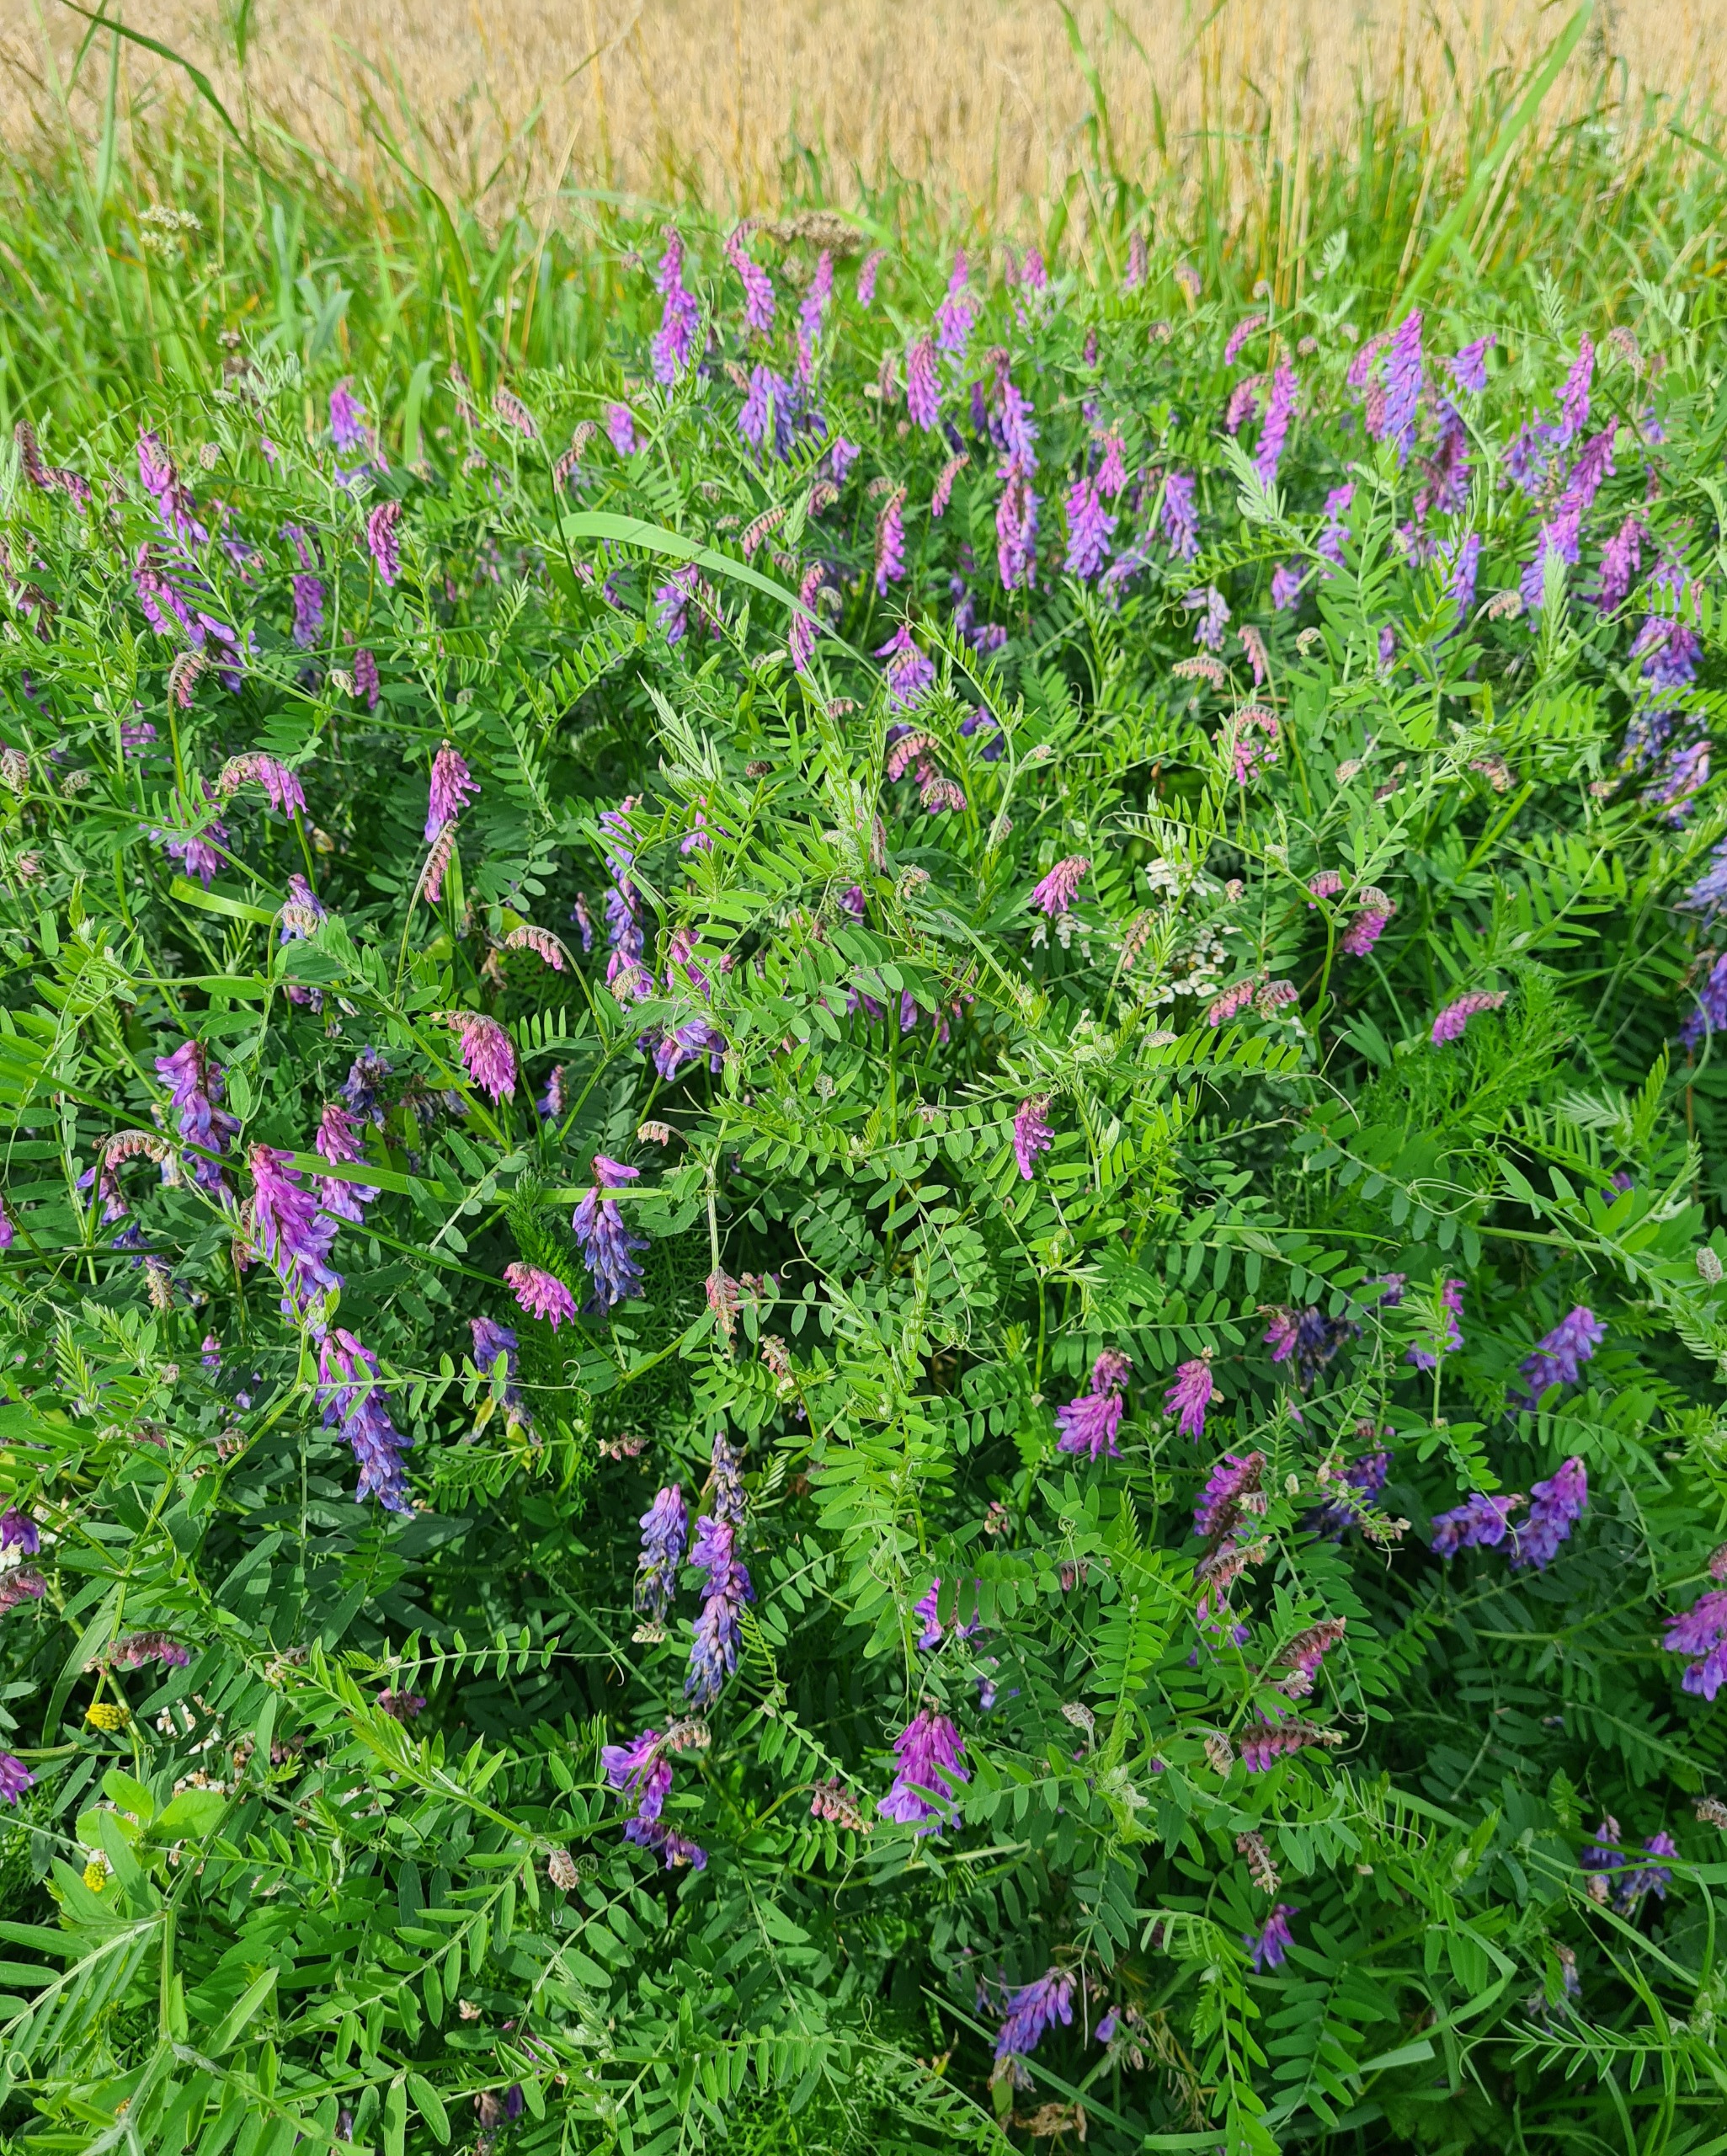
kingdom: Plantae
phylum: Tracheophyta
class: Magnoliopsida
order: Fabales
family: Fabaceae
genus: Vicia
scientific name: Vicia cracca
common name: Muse-vikke
